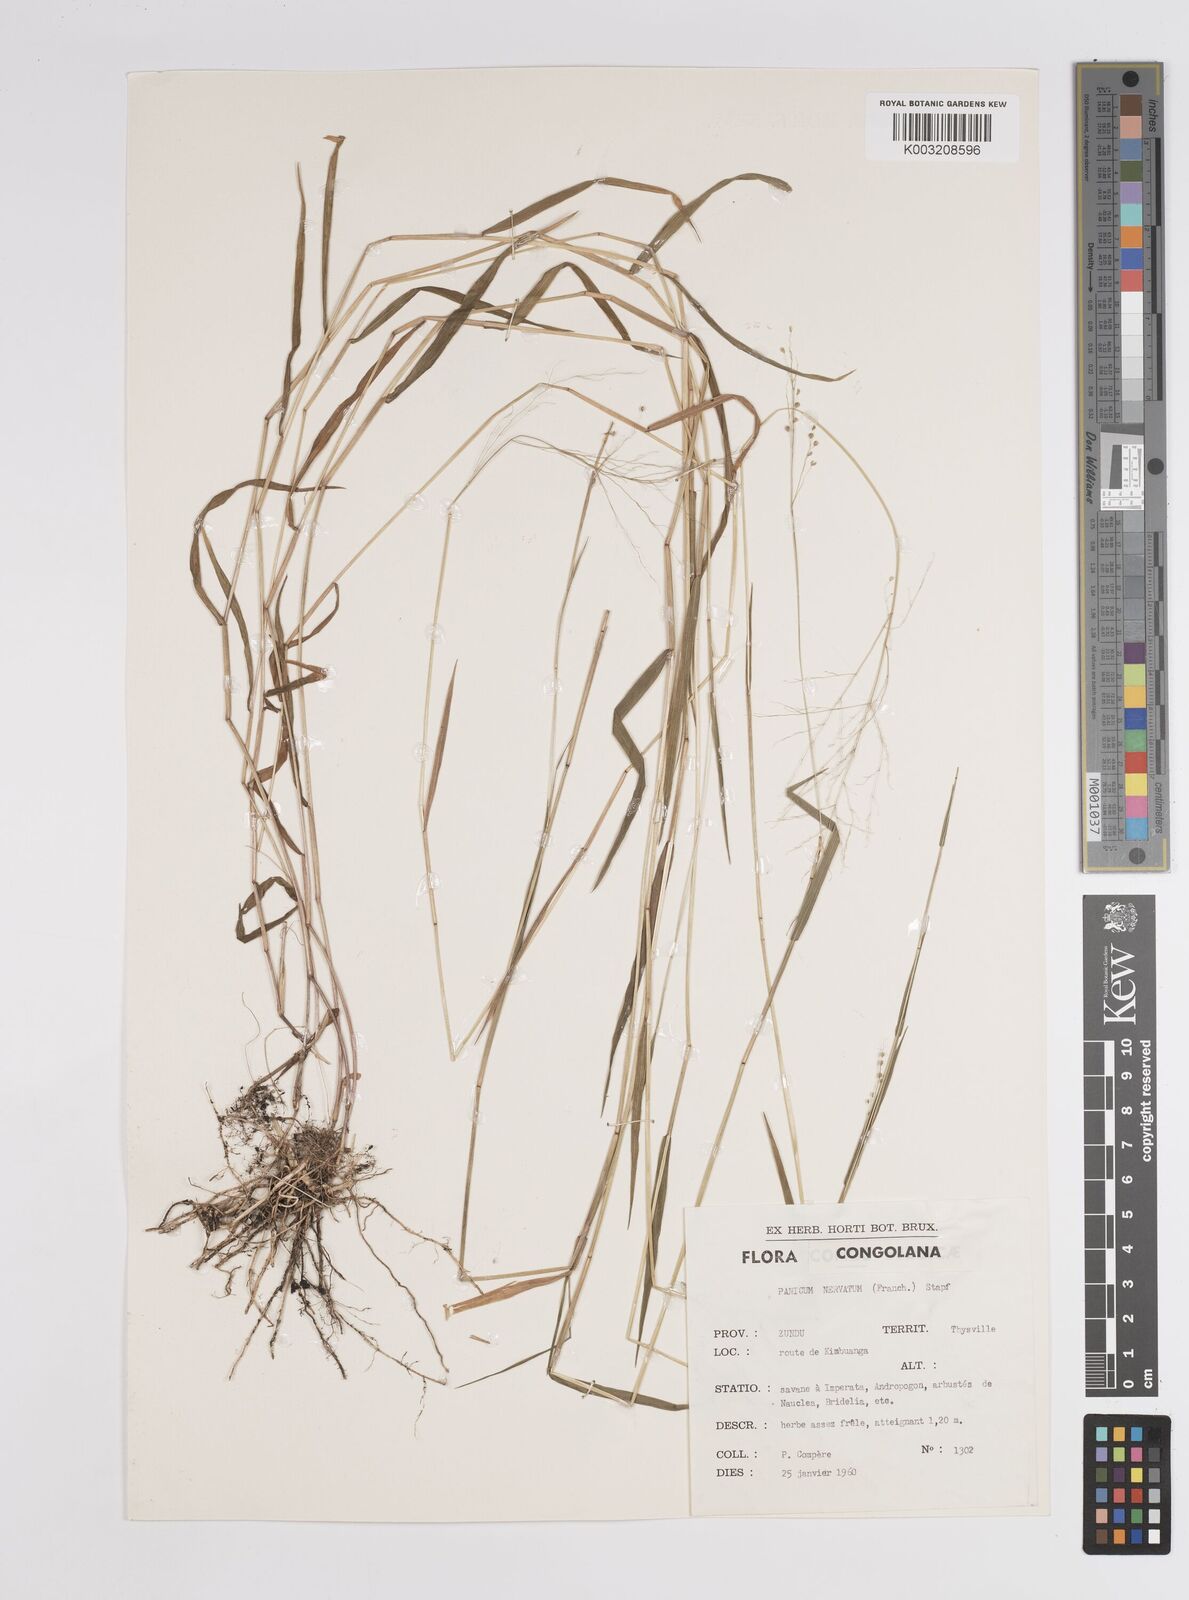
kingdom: Plantae
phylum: Tracheophyta
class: Liliopsida
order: Poales
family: Poaceae
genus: Trichanthecium
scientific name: Trichanthecium nervatum
